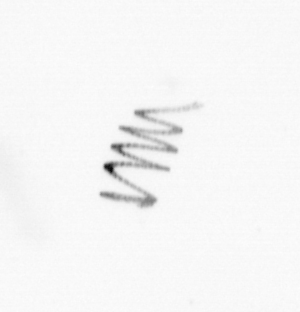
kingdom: Chromista
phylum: Ochrophyta
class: Bacillariophyceae
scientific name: Bacillariophyceae
